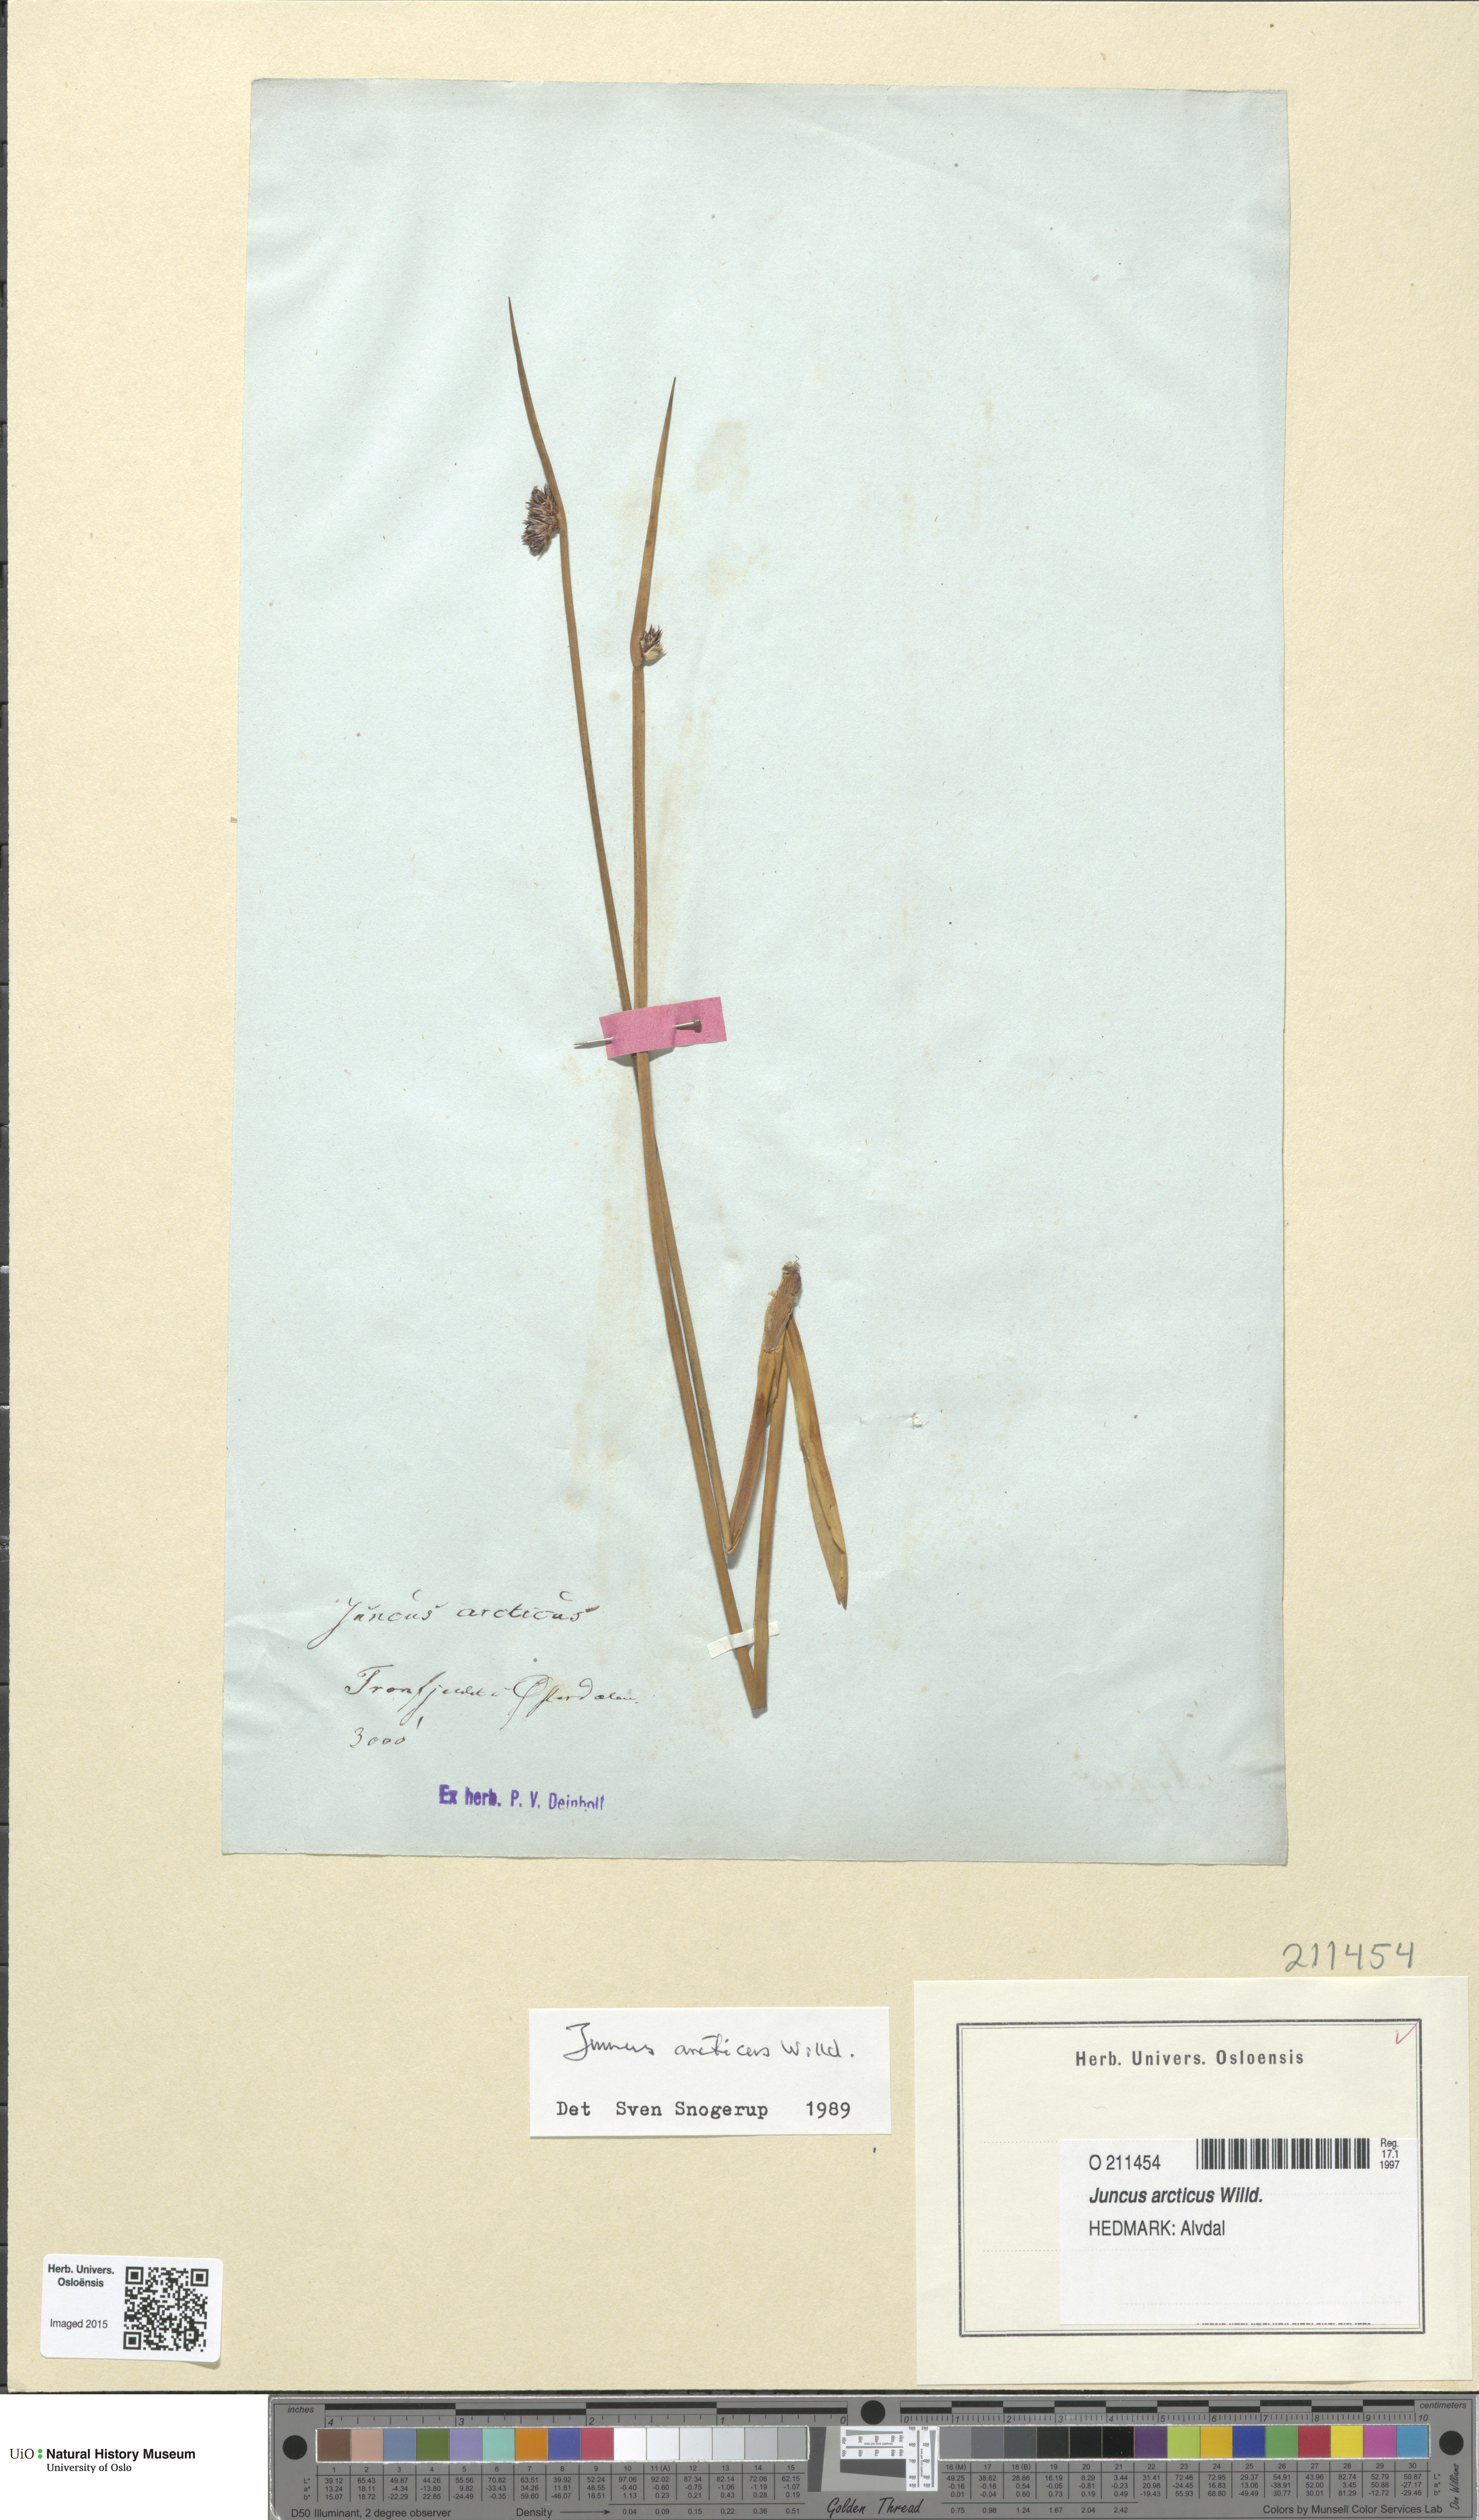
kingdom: Plantae
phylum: Tracheophyta
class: Liliopsida
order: Poales
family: Juncaceae
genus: Juncus
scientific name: Juncus arcticus
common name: Arctic rush
